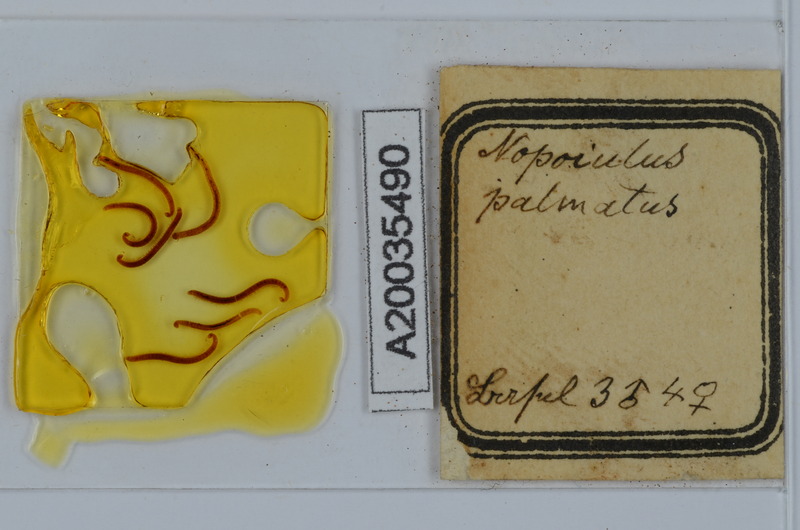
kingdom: Animalia
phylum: Arthropoda
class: Diplopoda
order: Julida
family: Blaniulidae
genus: Nopoiulus
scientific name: Nopoiulus palmatus
